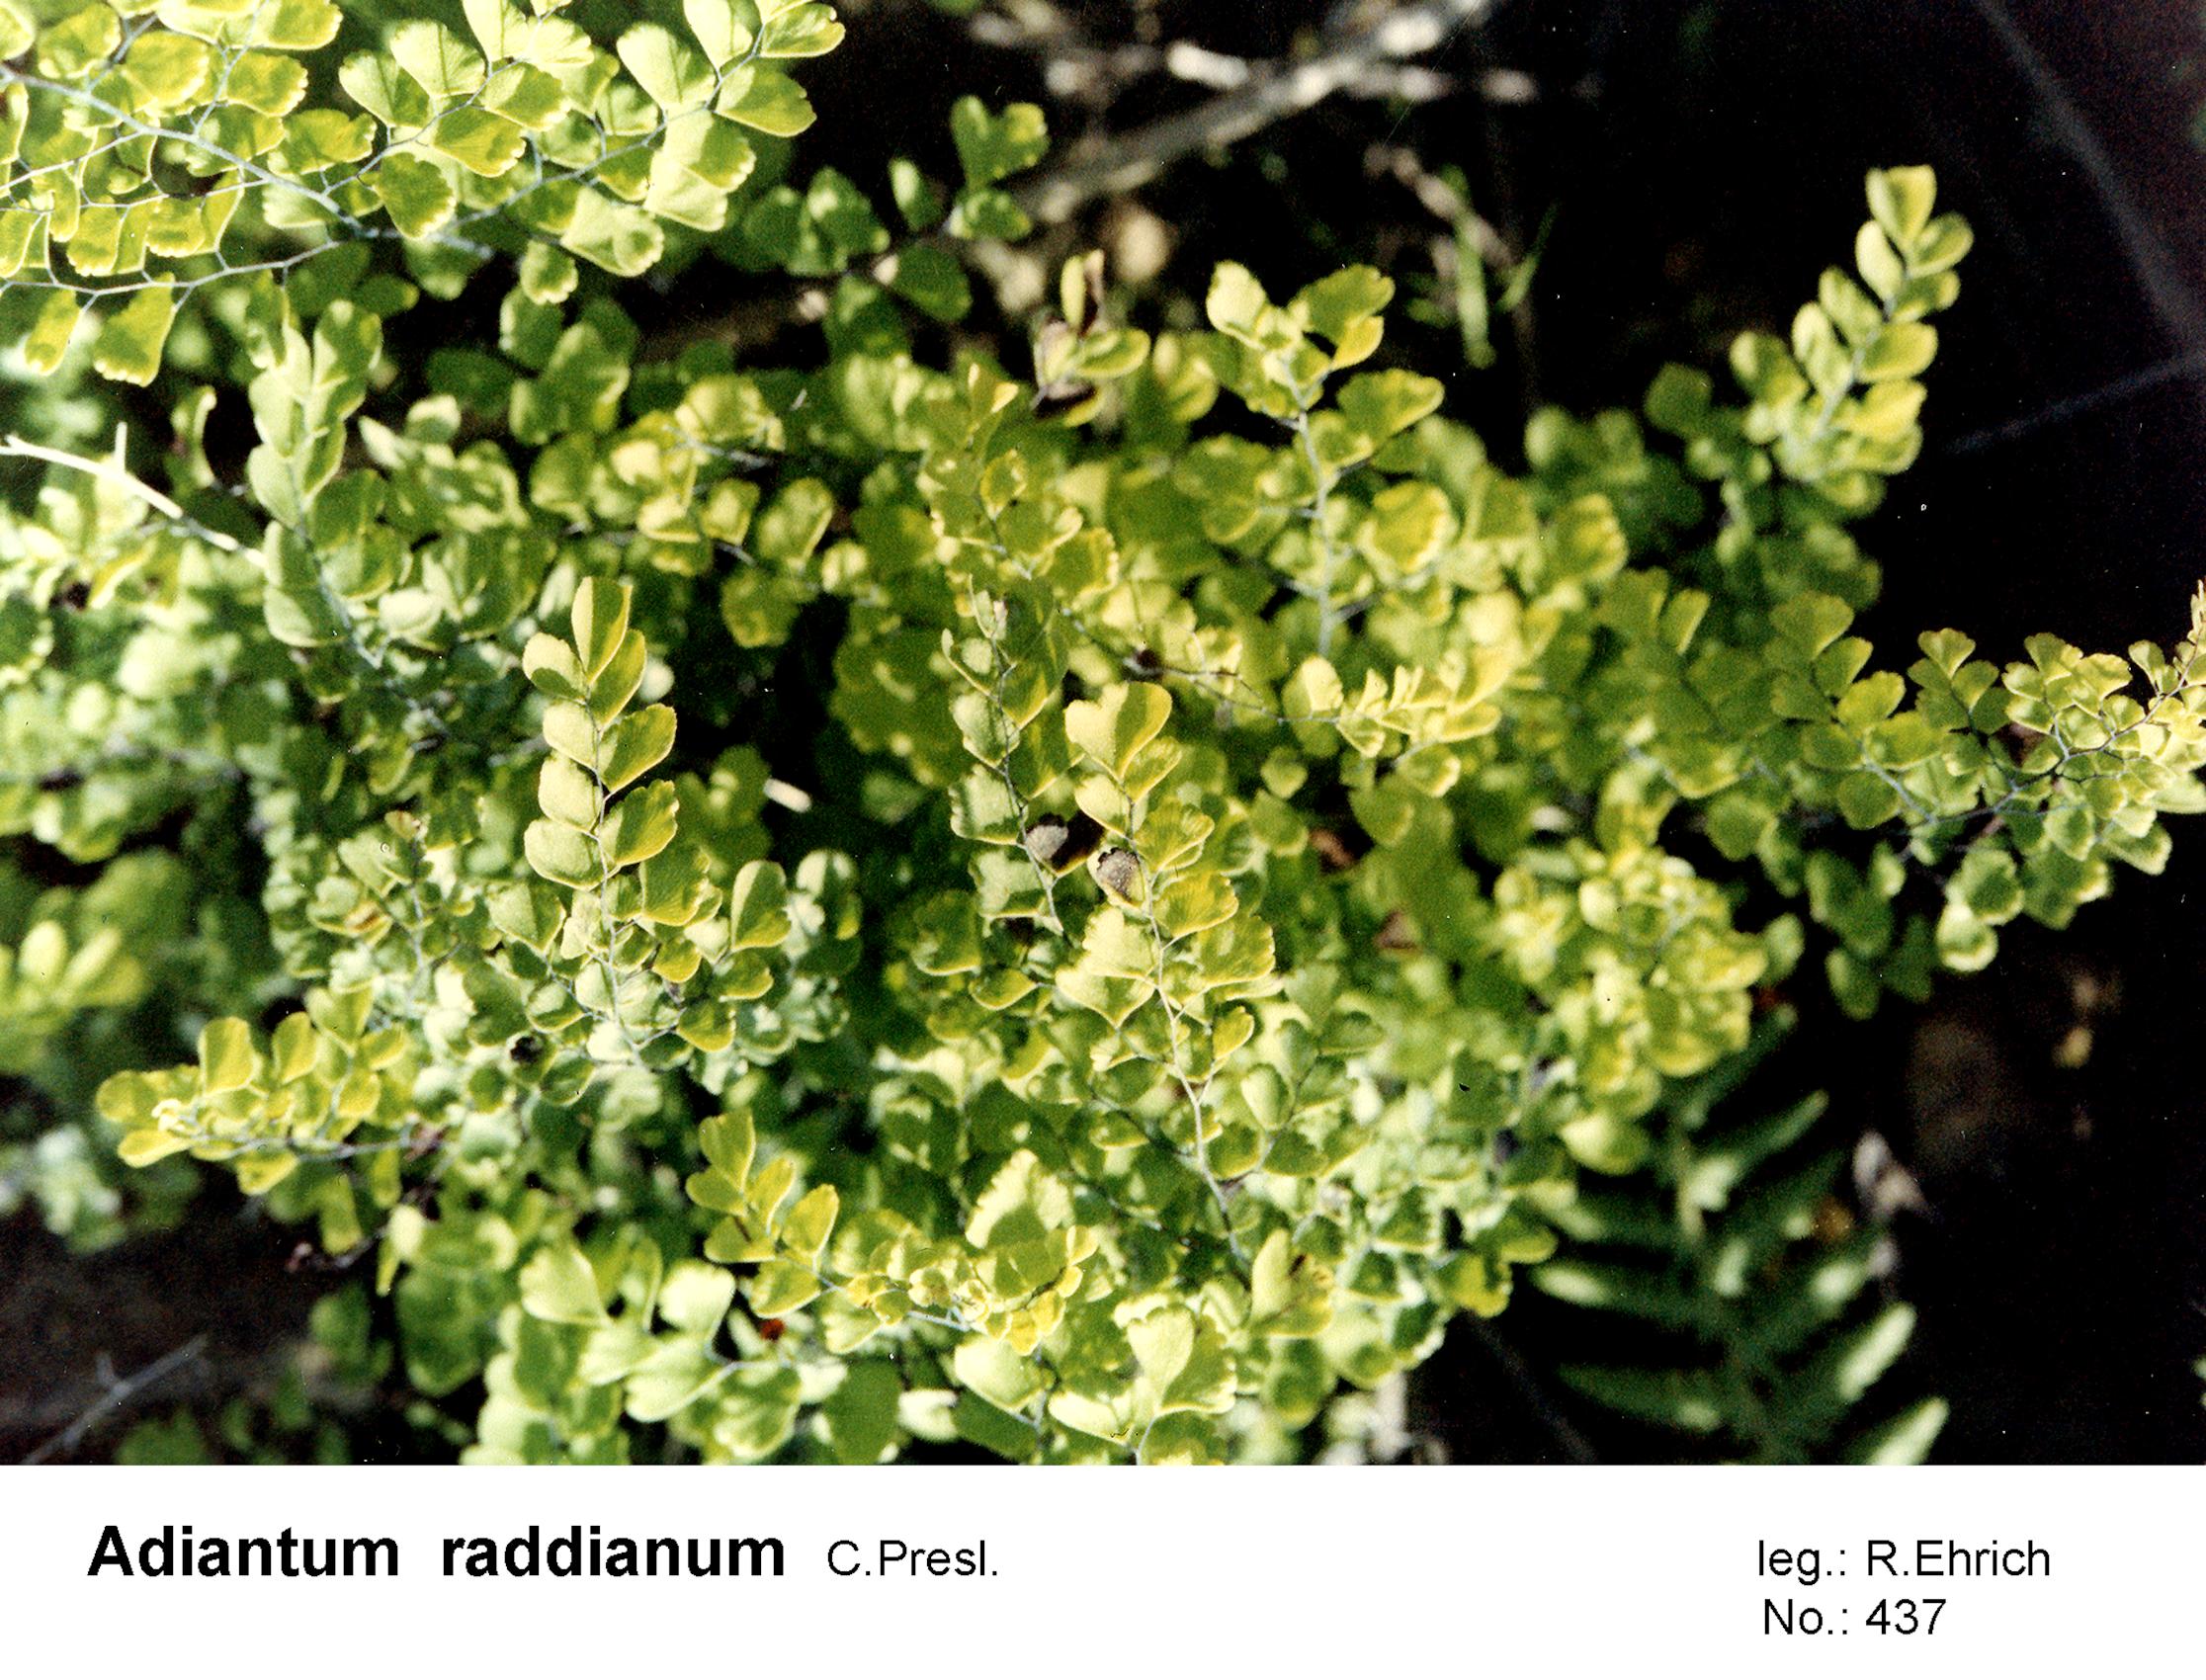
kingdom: Plantae
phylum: Tracheophyta
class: Polypodiopsida
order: Polypodiales
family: Pteridaceae
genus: Adiantum
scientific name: Adiantum raddianum
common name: Delta maidenhair fern
